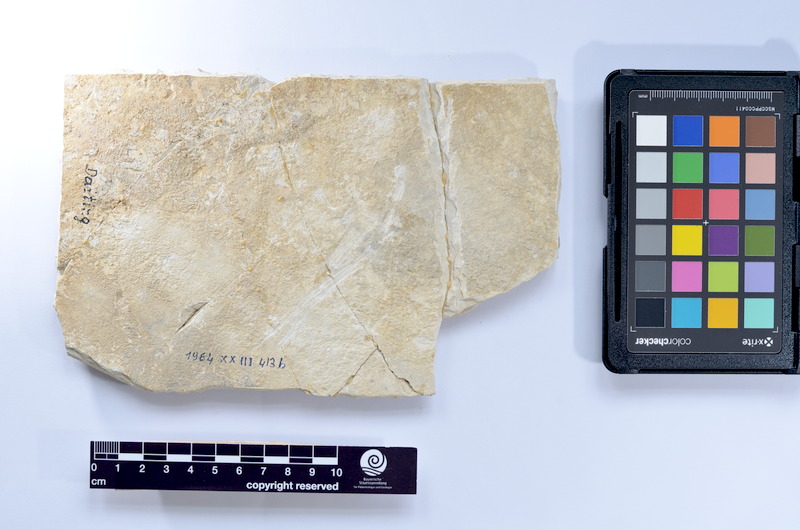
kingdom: Animalia
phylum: Chordata
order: Elopiformes
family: Anaethalionidae
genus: Anaethalion
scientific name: Anaethalion knorri
